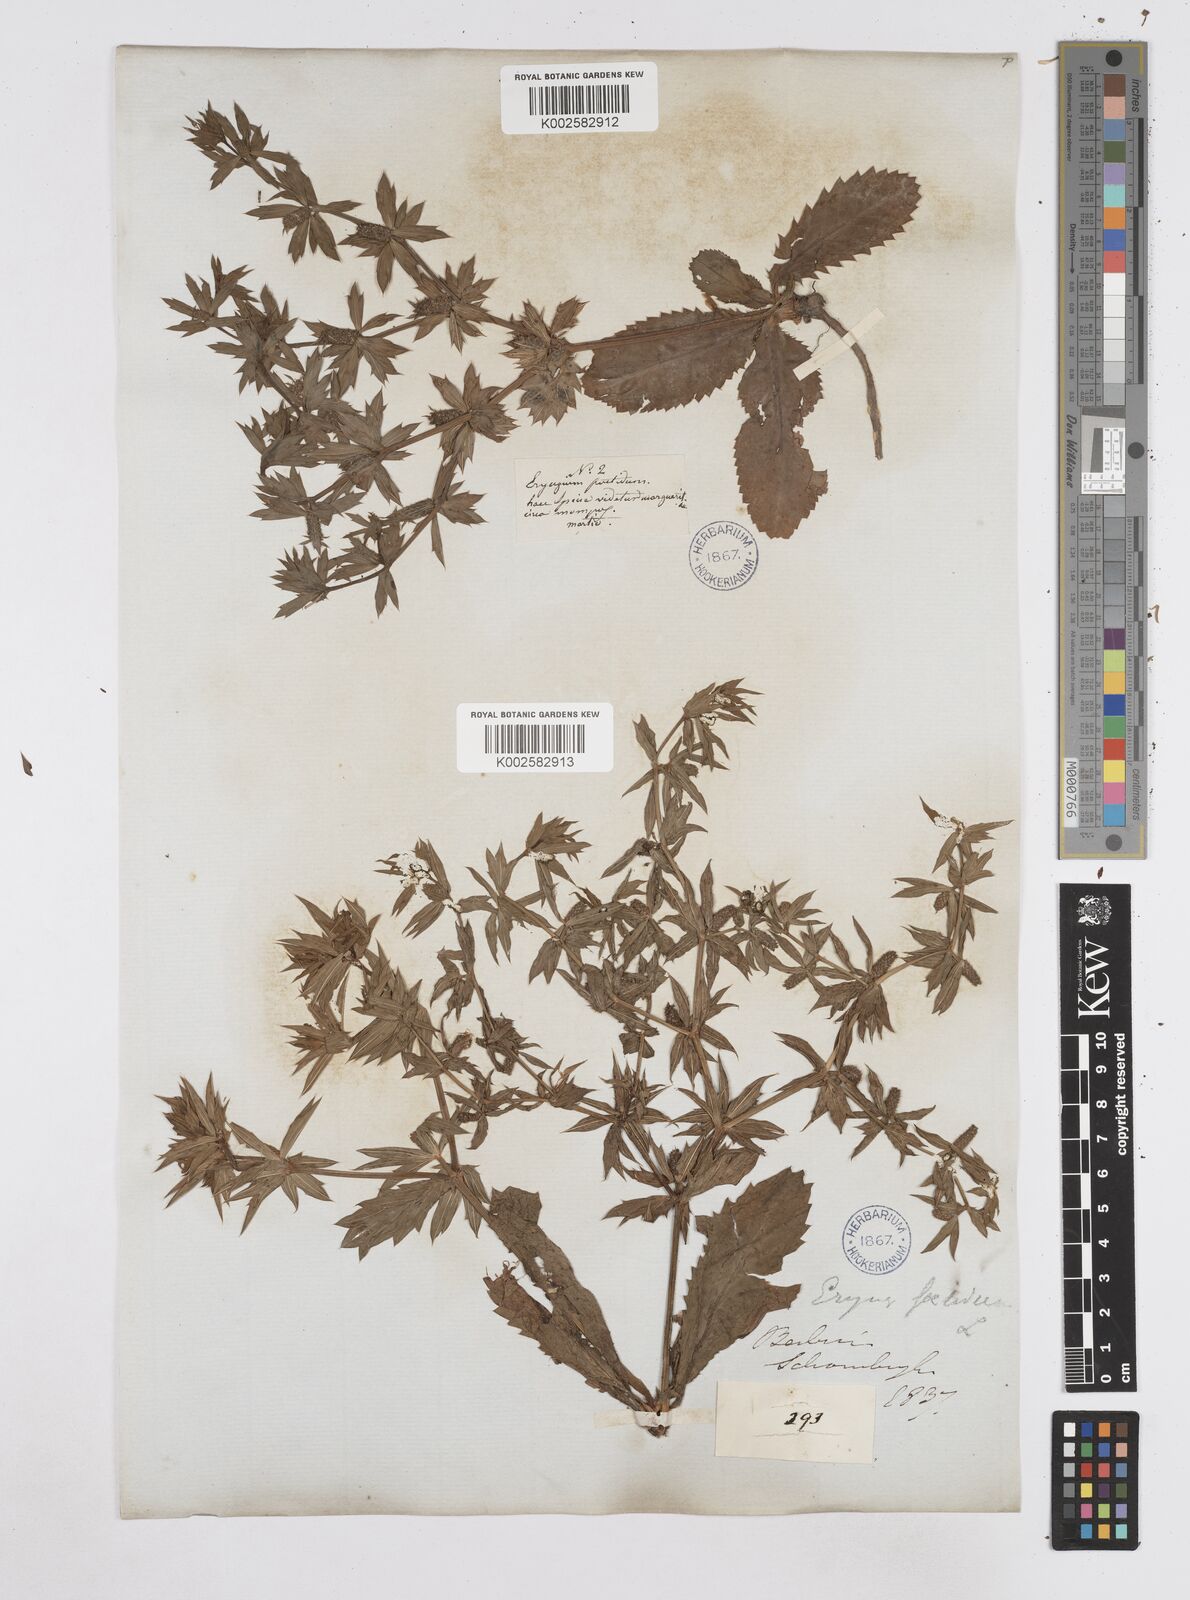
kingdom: Plantae
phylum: Tracheophyta
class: Magnoliopsida
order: Apiales
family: Apiaceae
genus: Eryngium
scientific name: Eryngium foetidum
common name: Fitweed
